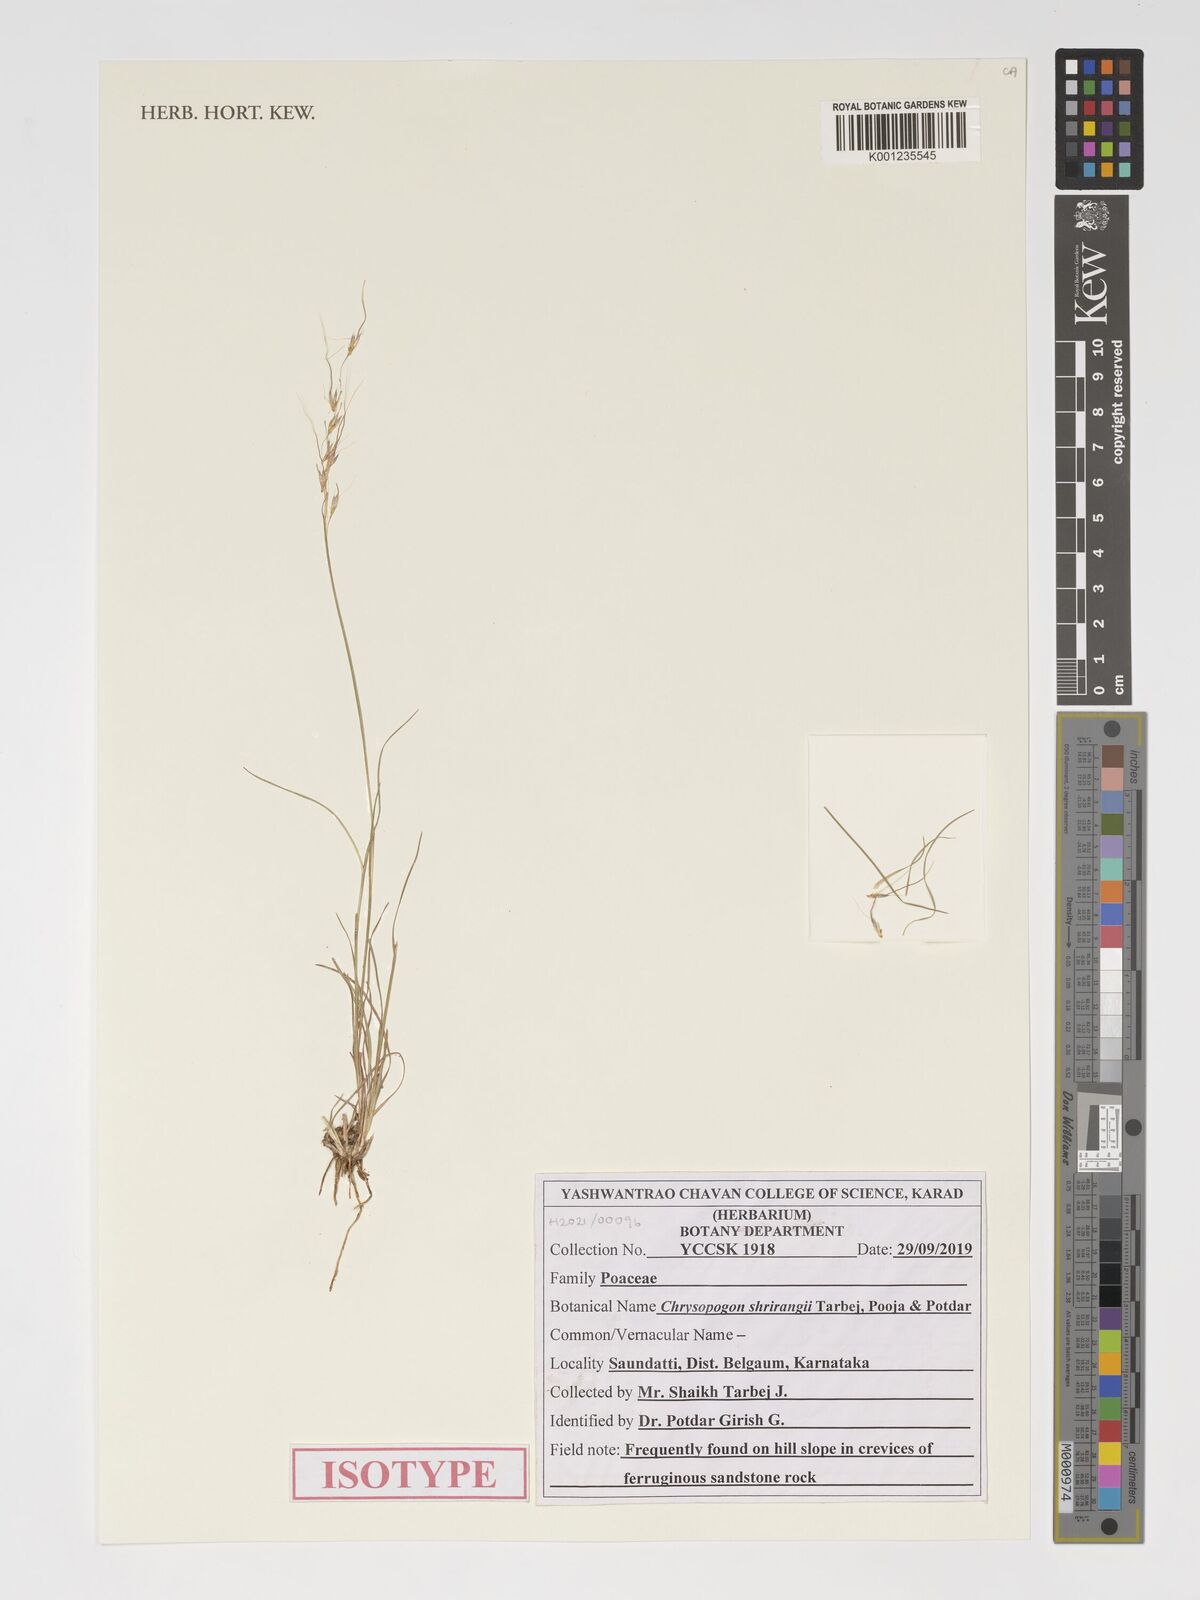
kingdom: Plantae
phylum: Tracheophyta
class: Liliopsida
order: Poales
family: Poaceae
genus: Chrysopogon
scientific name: Chrysopogon
